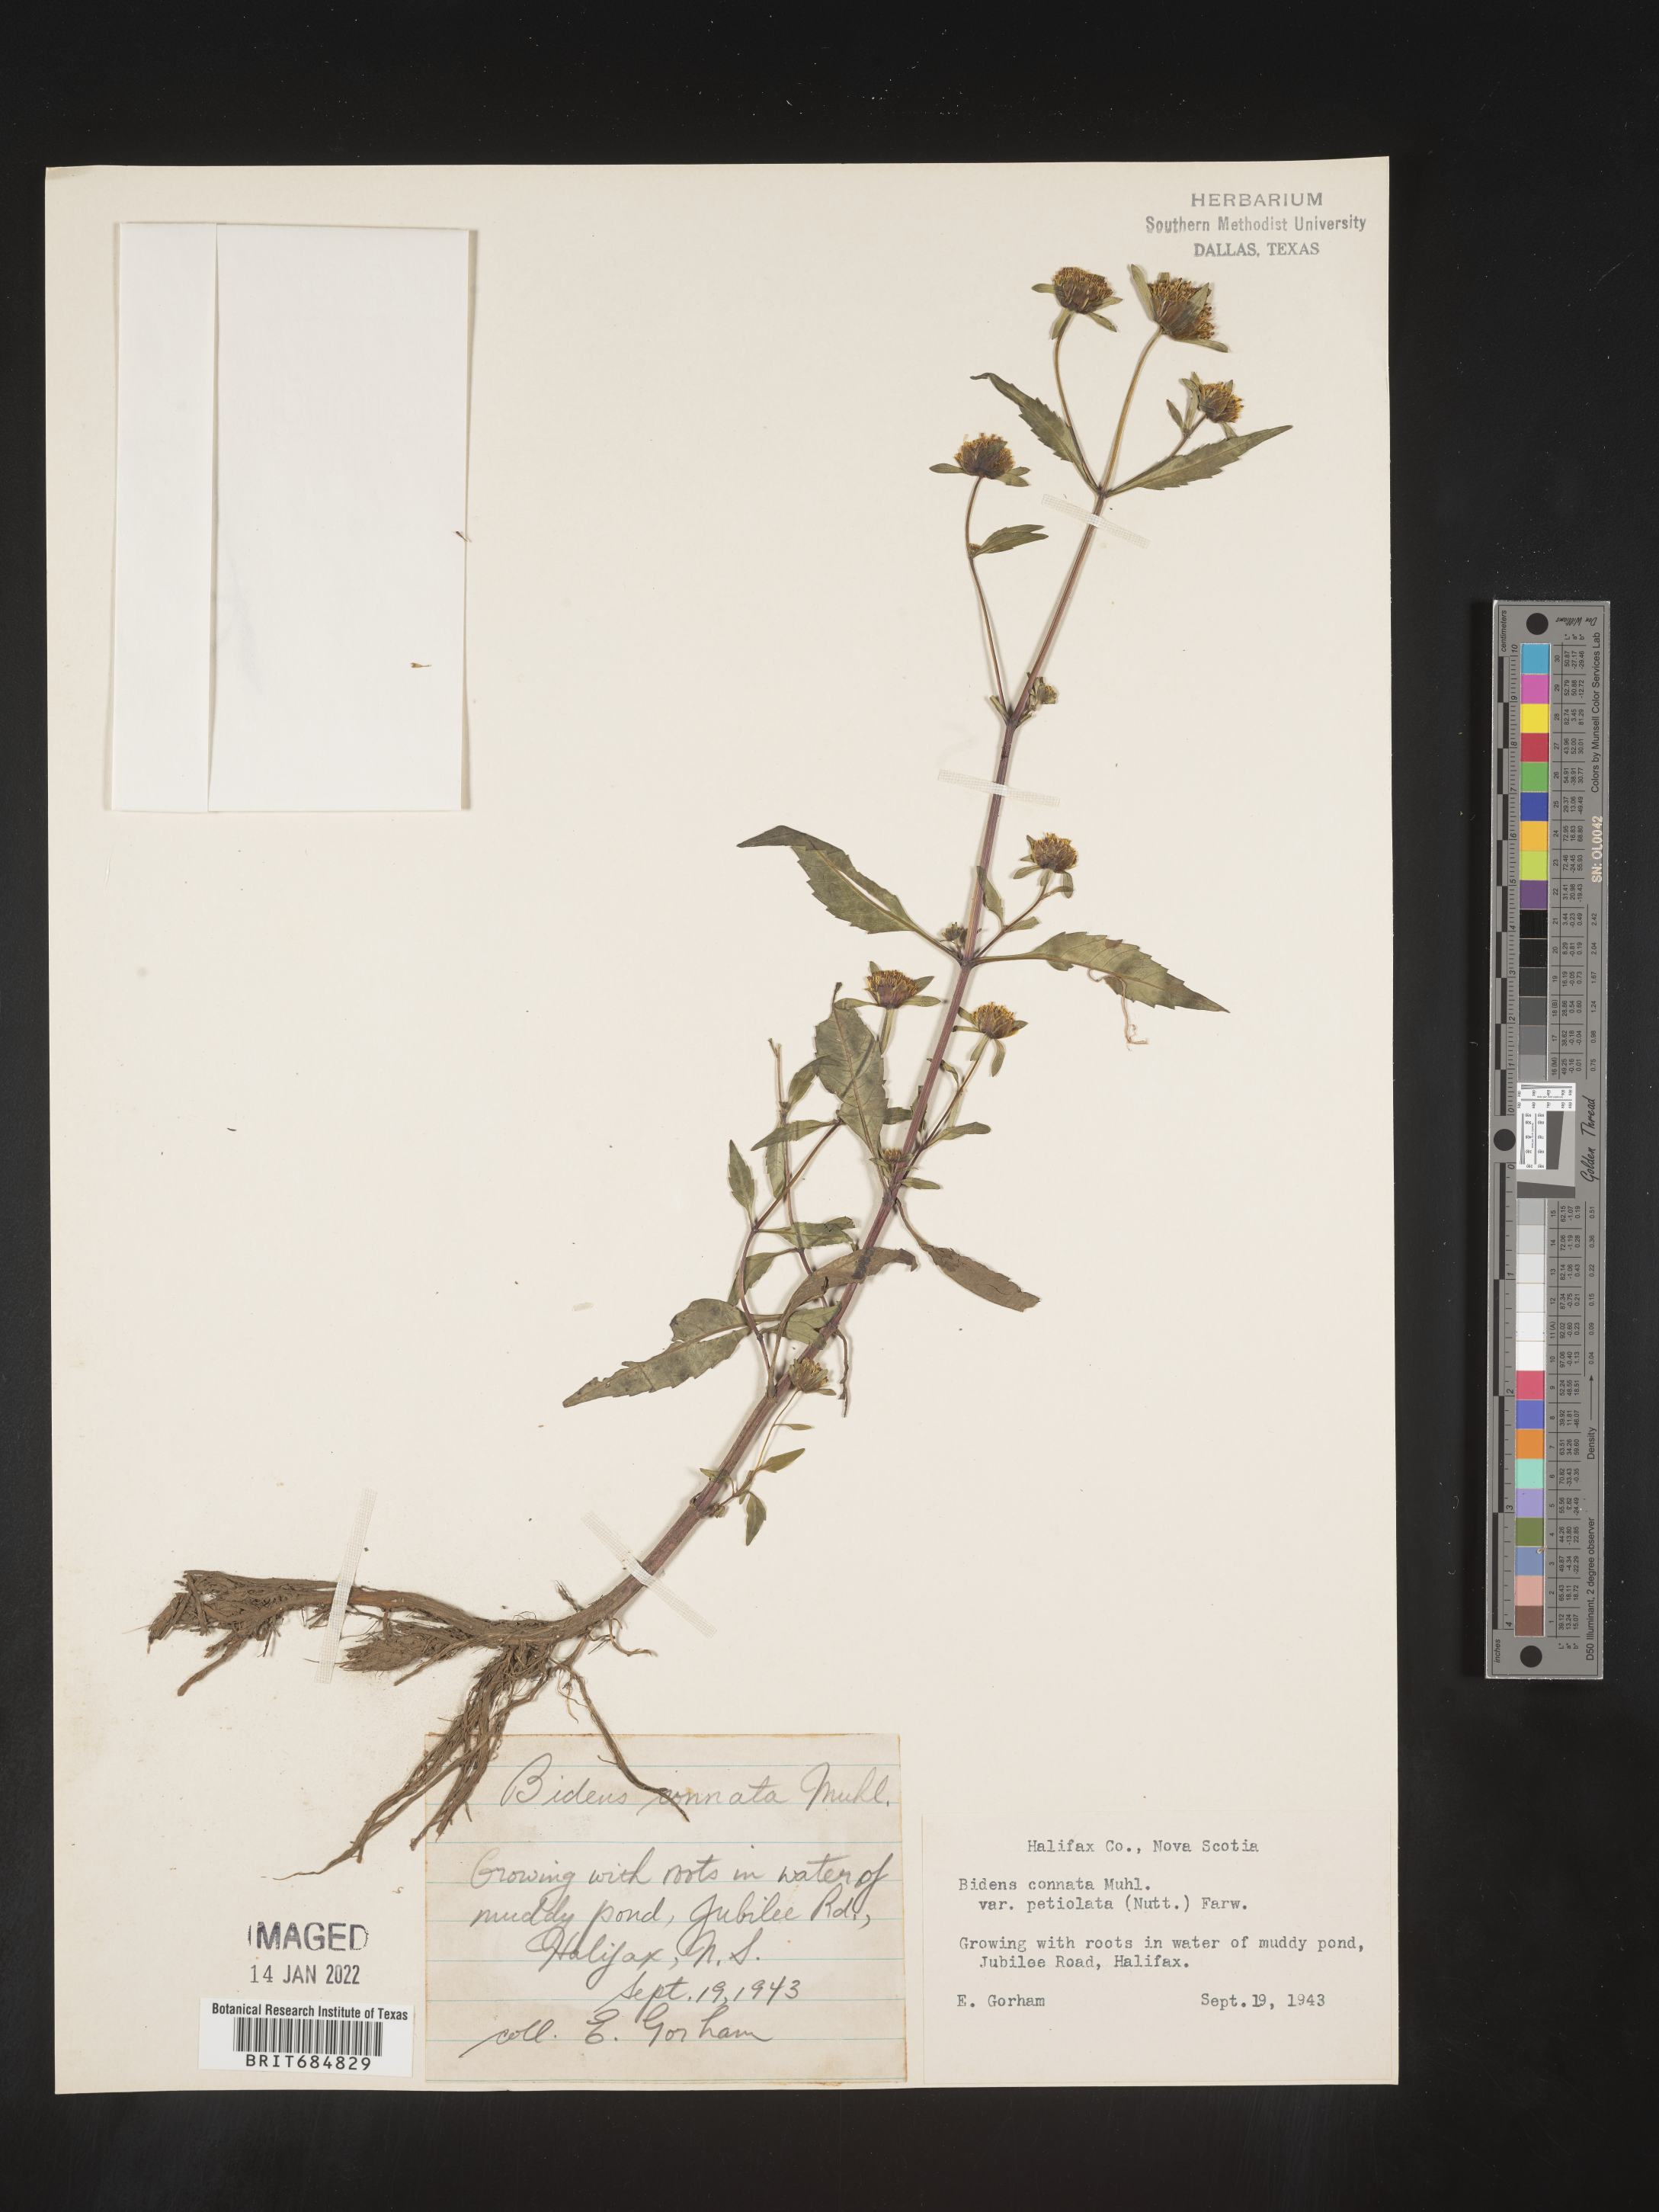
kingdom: Plantae
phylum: Tracheophyta
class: Magnoliopsida
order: Asterales
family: Asteraceae
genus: Bidens
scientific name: Bidens tripartita
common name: Trifid bur-marigold
